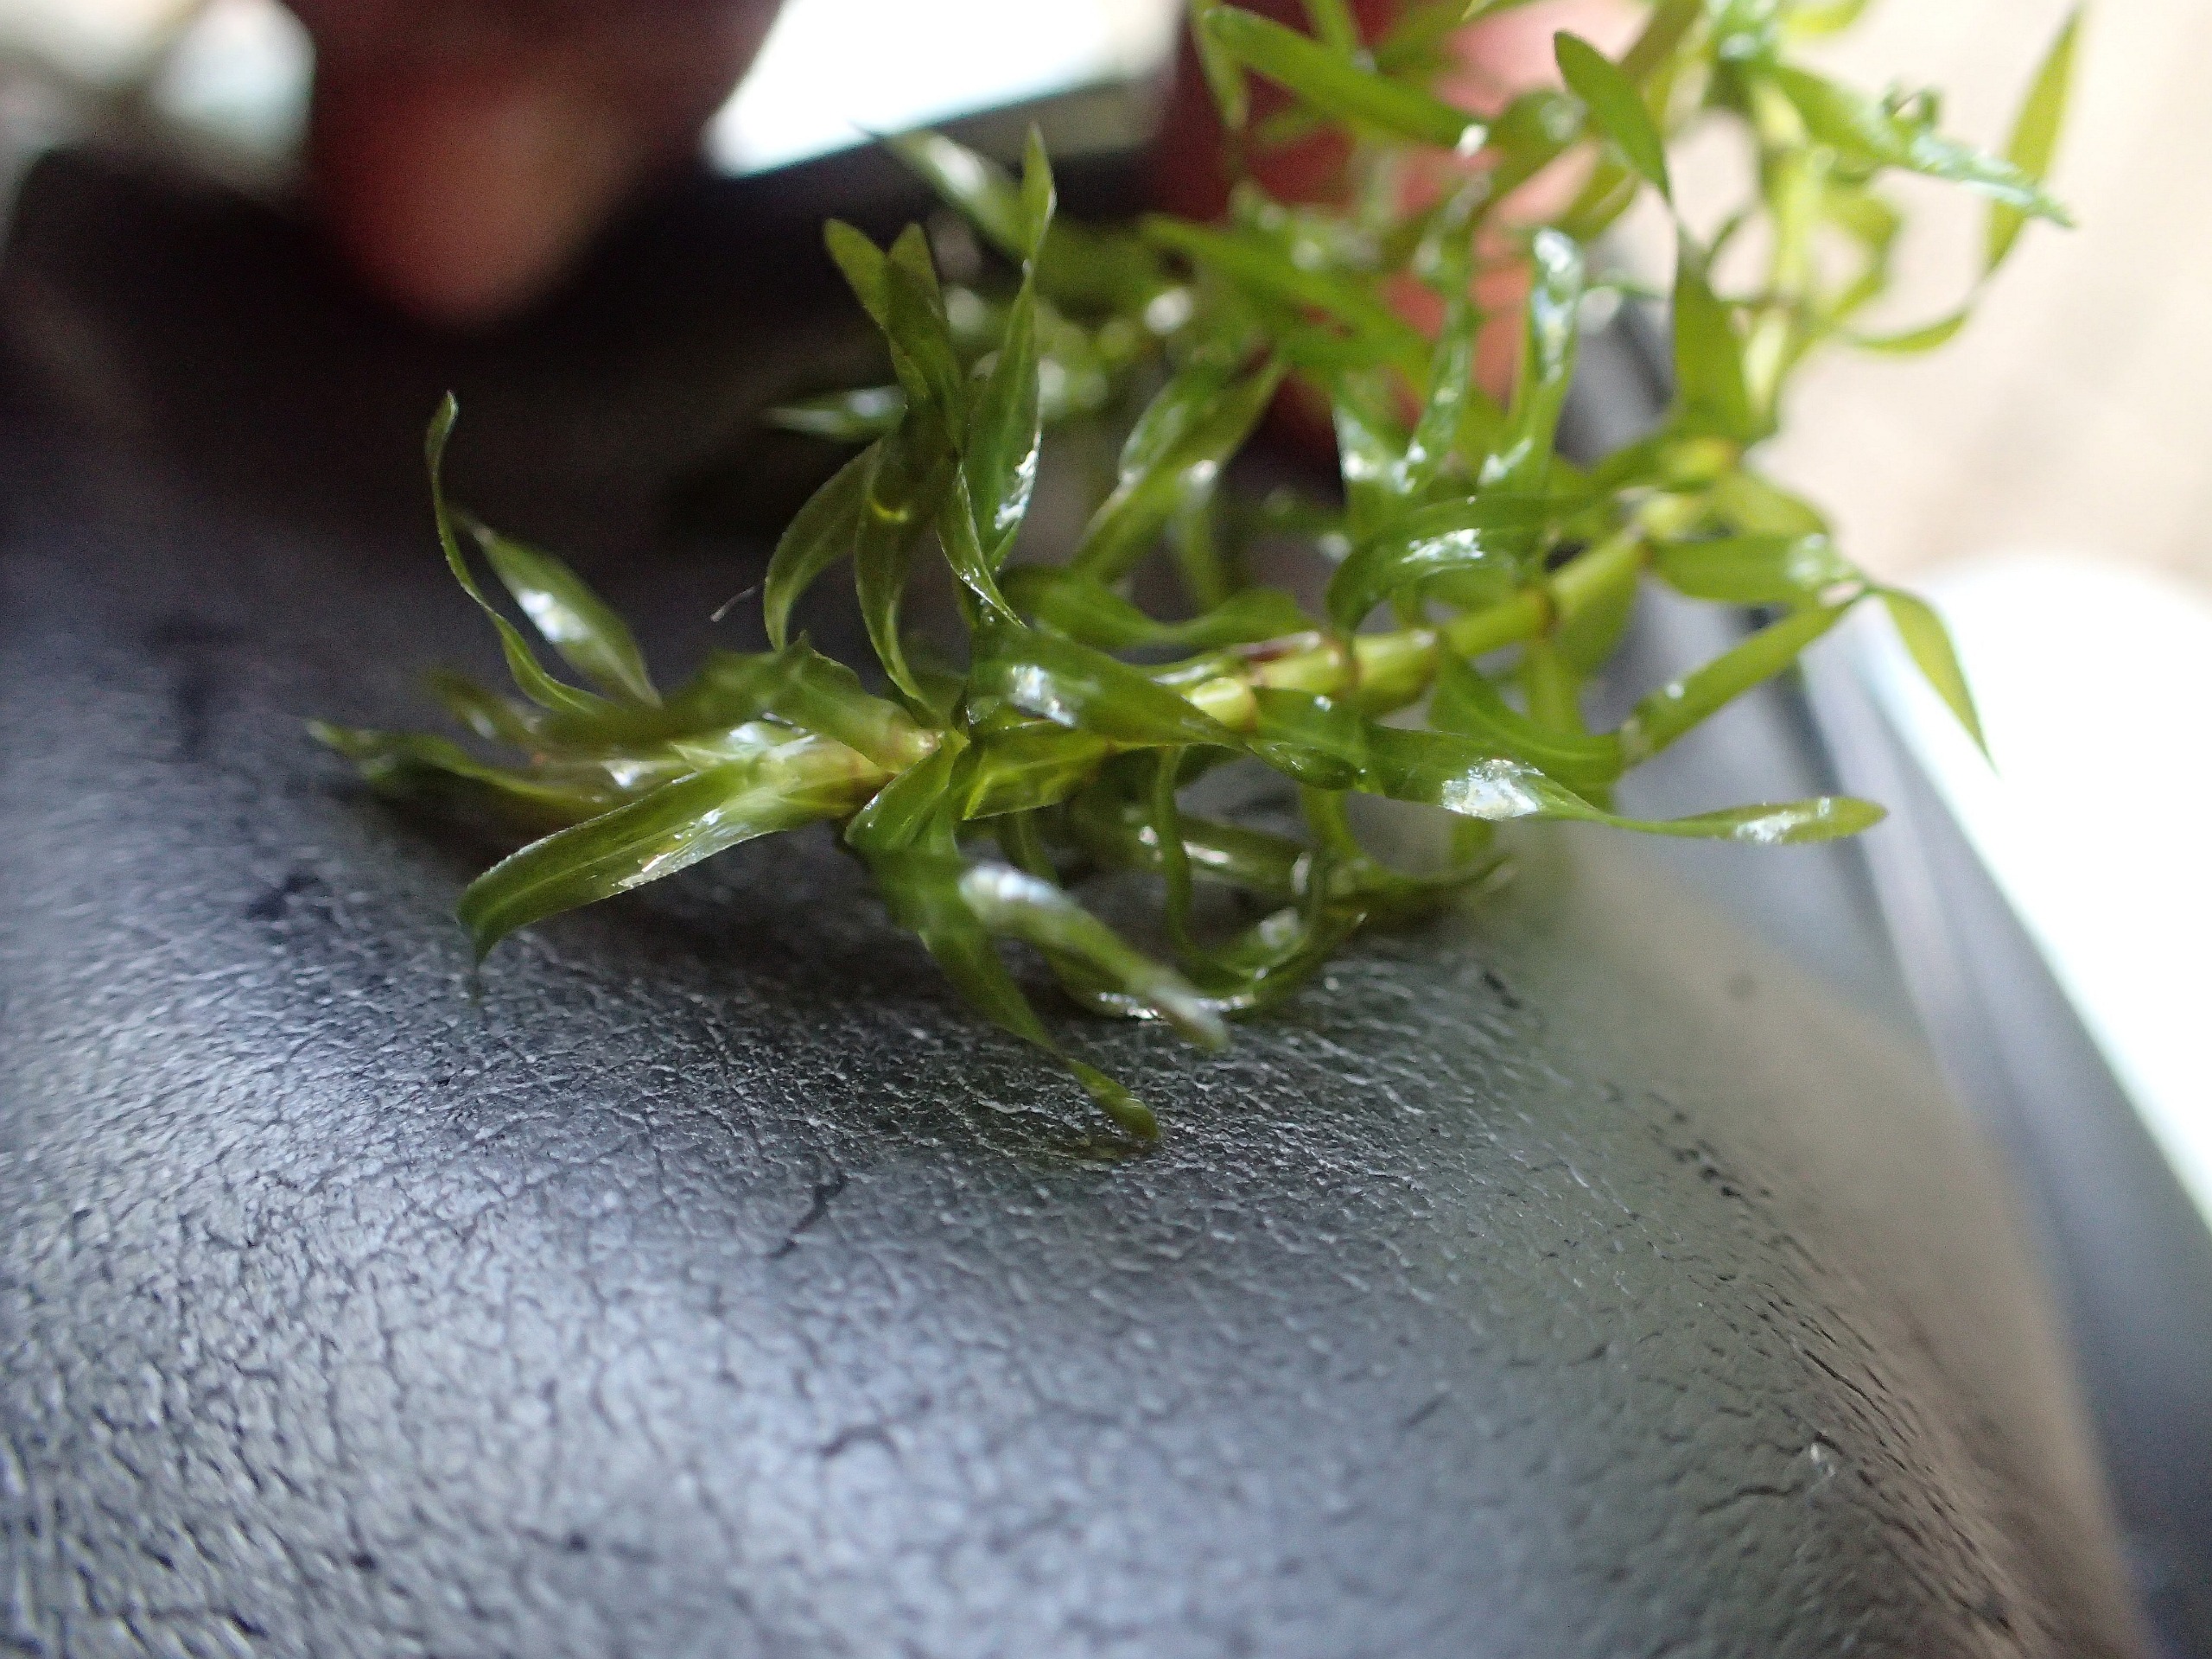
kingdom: Plantae
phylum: Tracheophyta
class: Liliopsida
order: Alismatales
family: Hydrocharitaceae
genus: Elodea
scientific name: Elodea nuttallii
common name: Smalbladet vandpest
